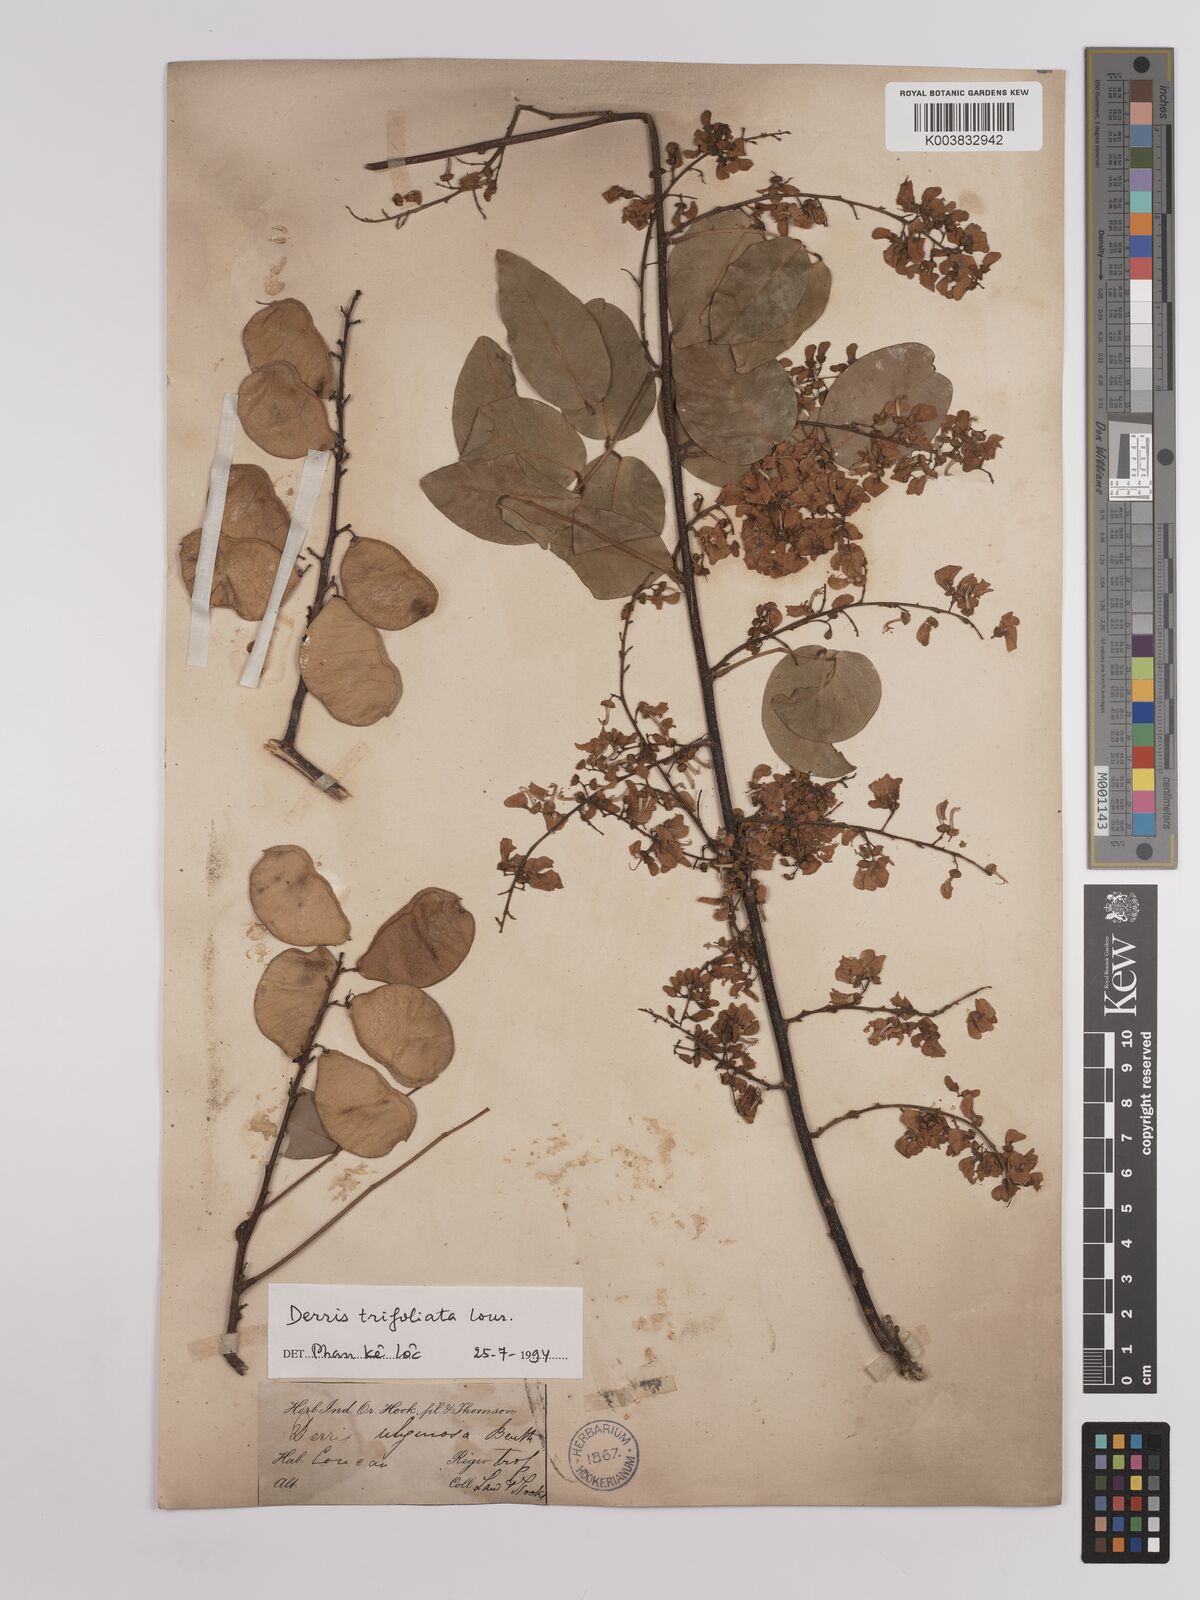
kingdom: Plantae
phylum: Tracheophyta
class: Magnoliopsida
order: Fabales
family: Fabaceae
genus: Derris
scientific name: Derris trifoliata
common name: Three-leaf derris
